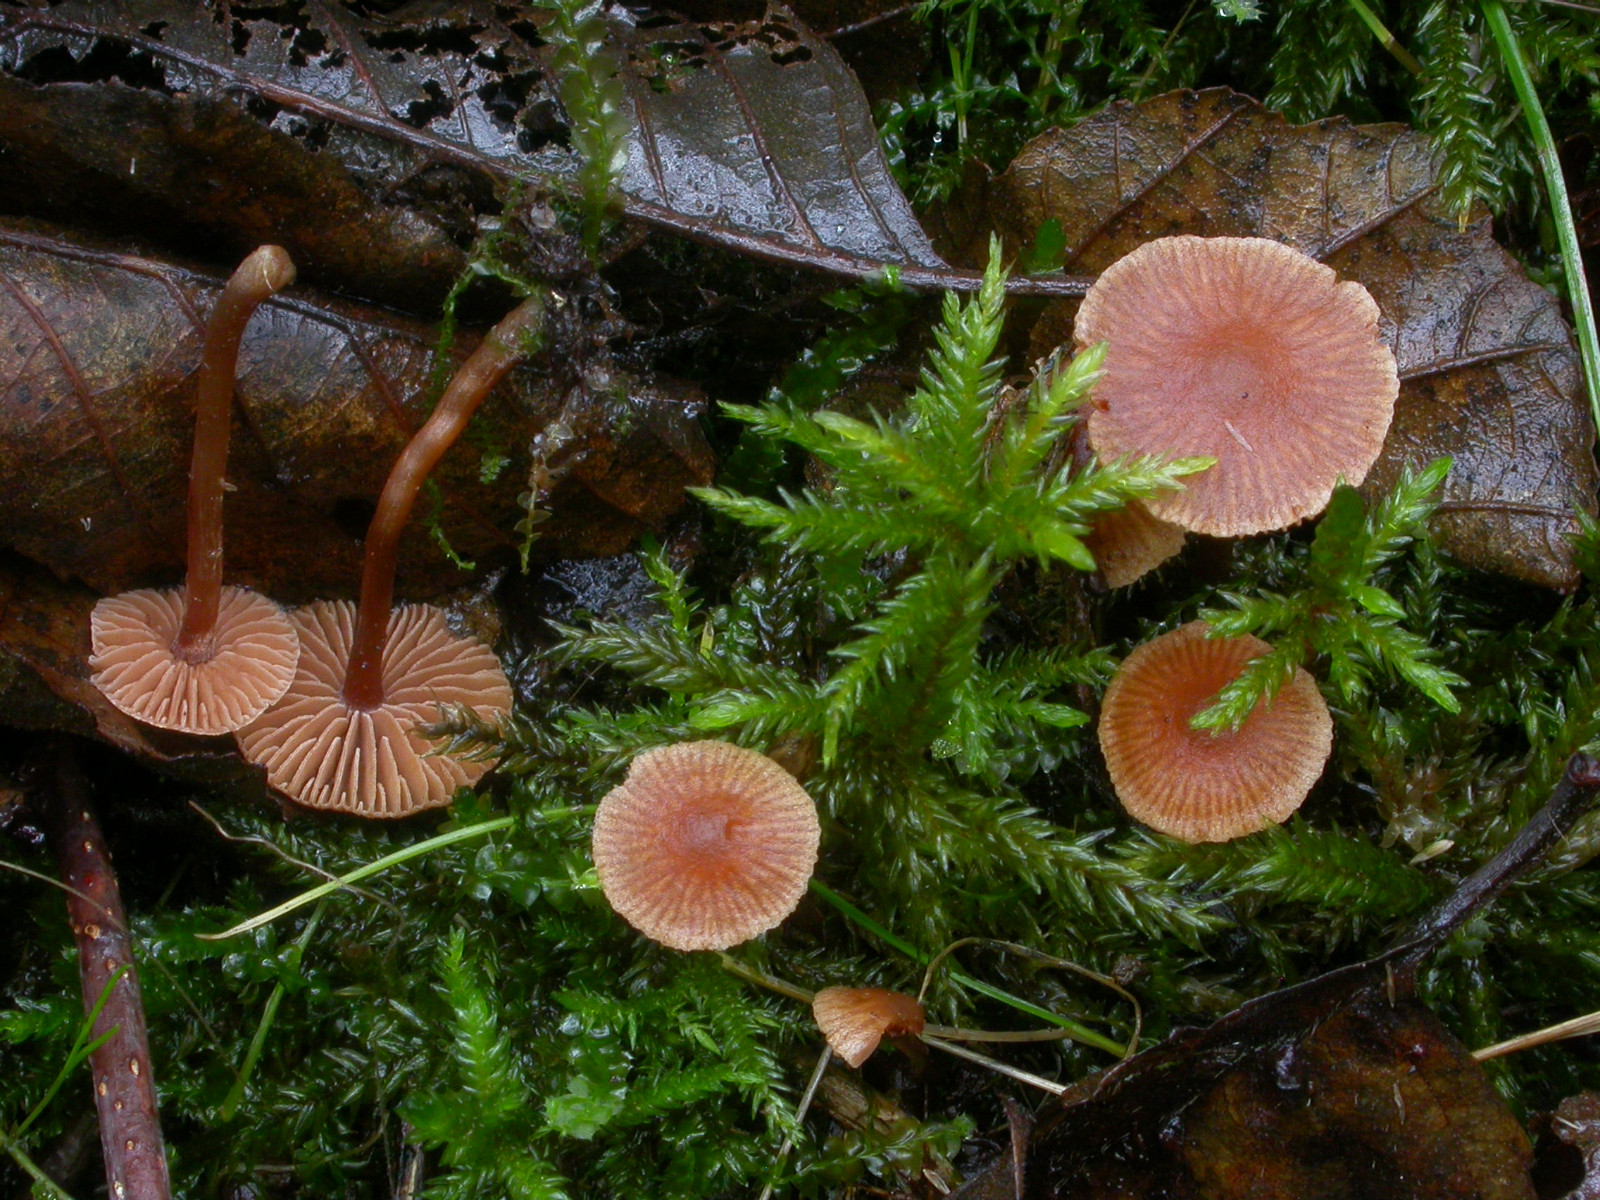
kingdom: Fungi
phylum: Basidiomycota
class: Agaricomycetes
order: Agaricales
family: Hymenogastraceae
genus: Naucoria
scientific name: Naucoria scolecina
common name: mørk elle-knaphat
